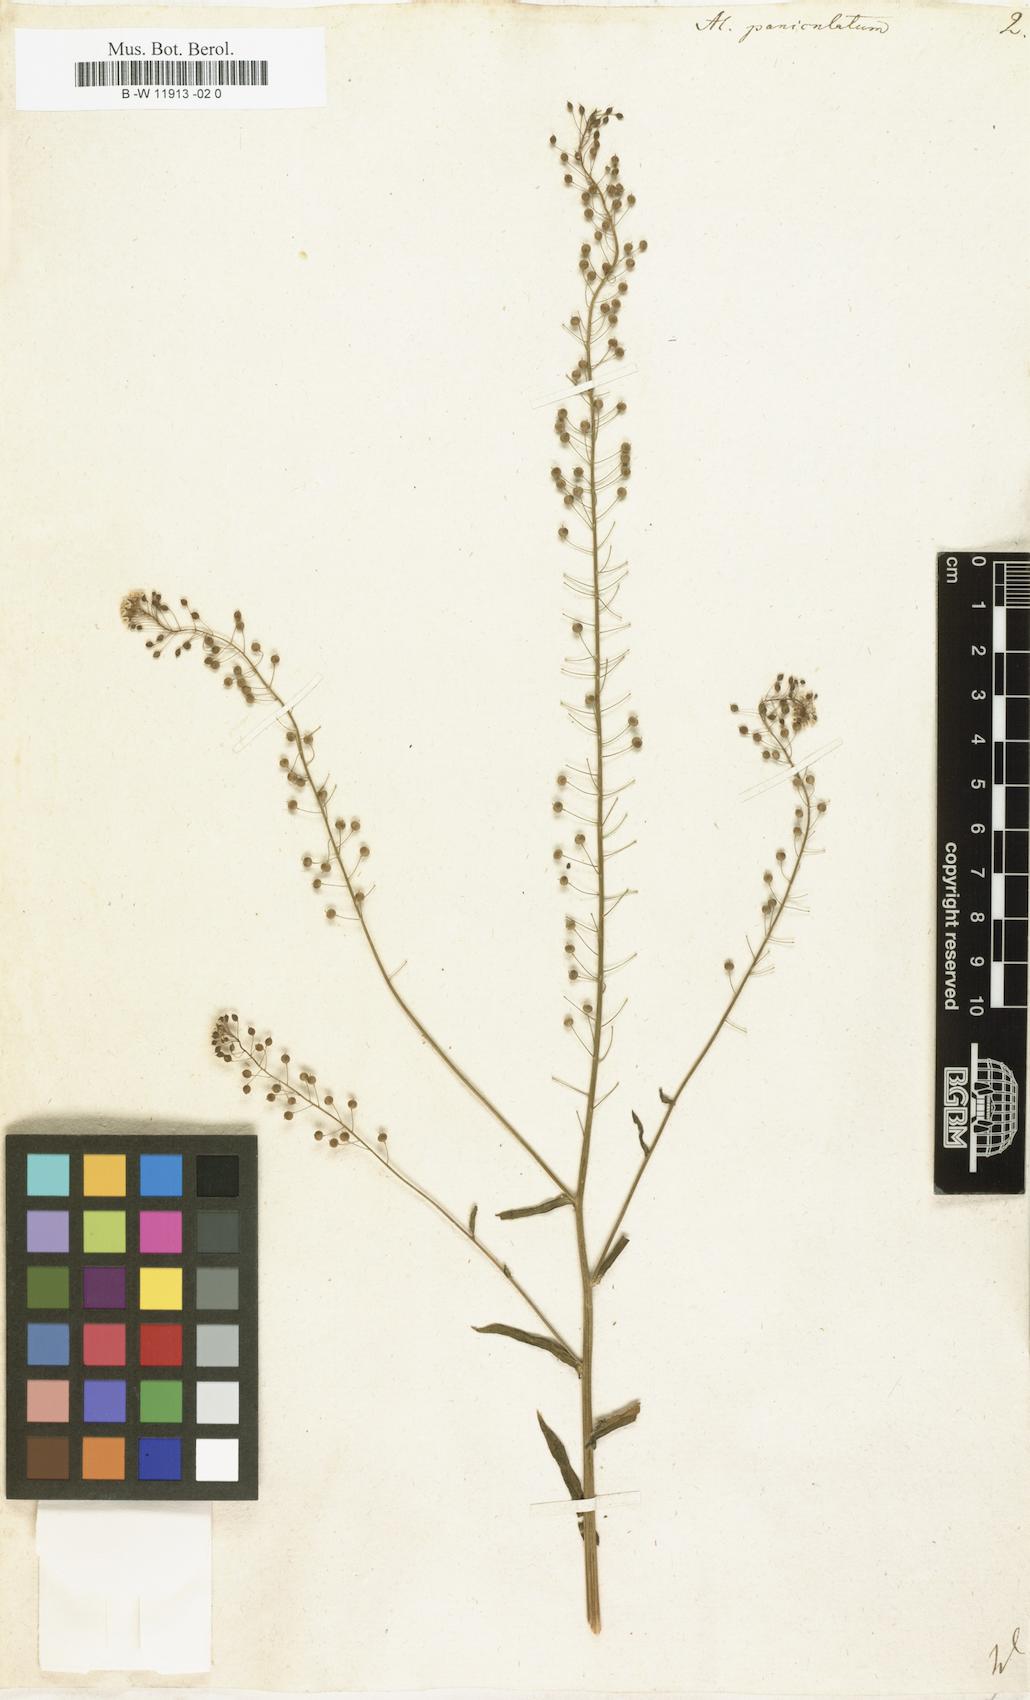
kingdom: Plantae
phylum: Tracheophyta
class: Magnoliopsida
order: Brassicales
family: Brassicaceae
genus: Lutzia
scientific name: Lutzia cretica
